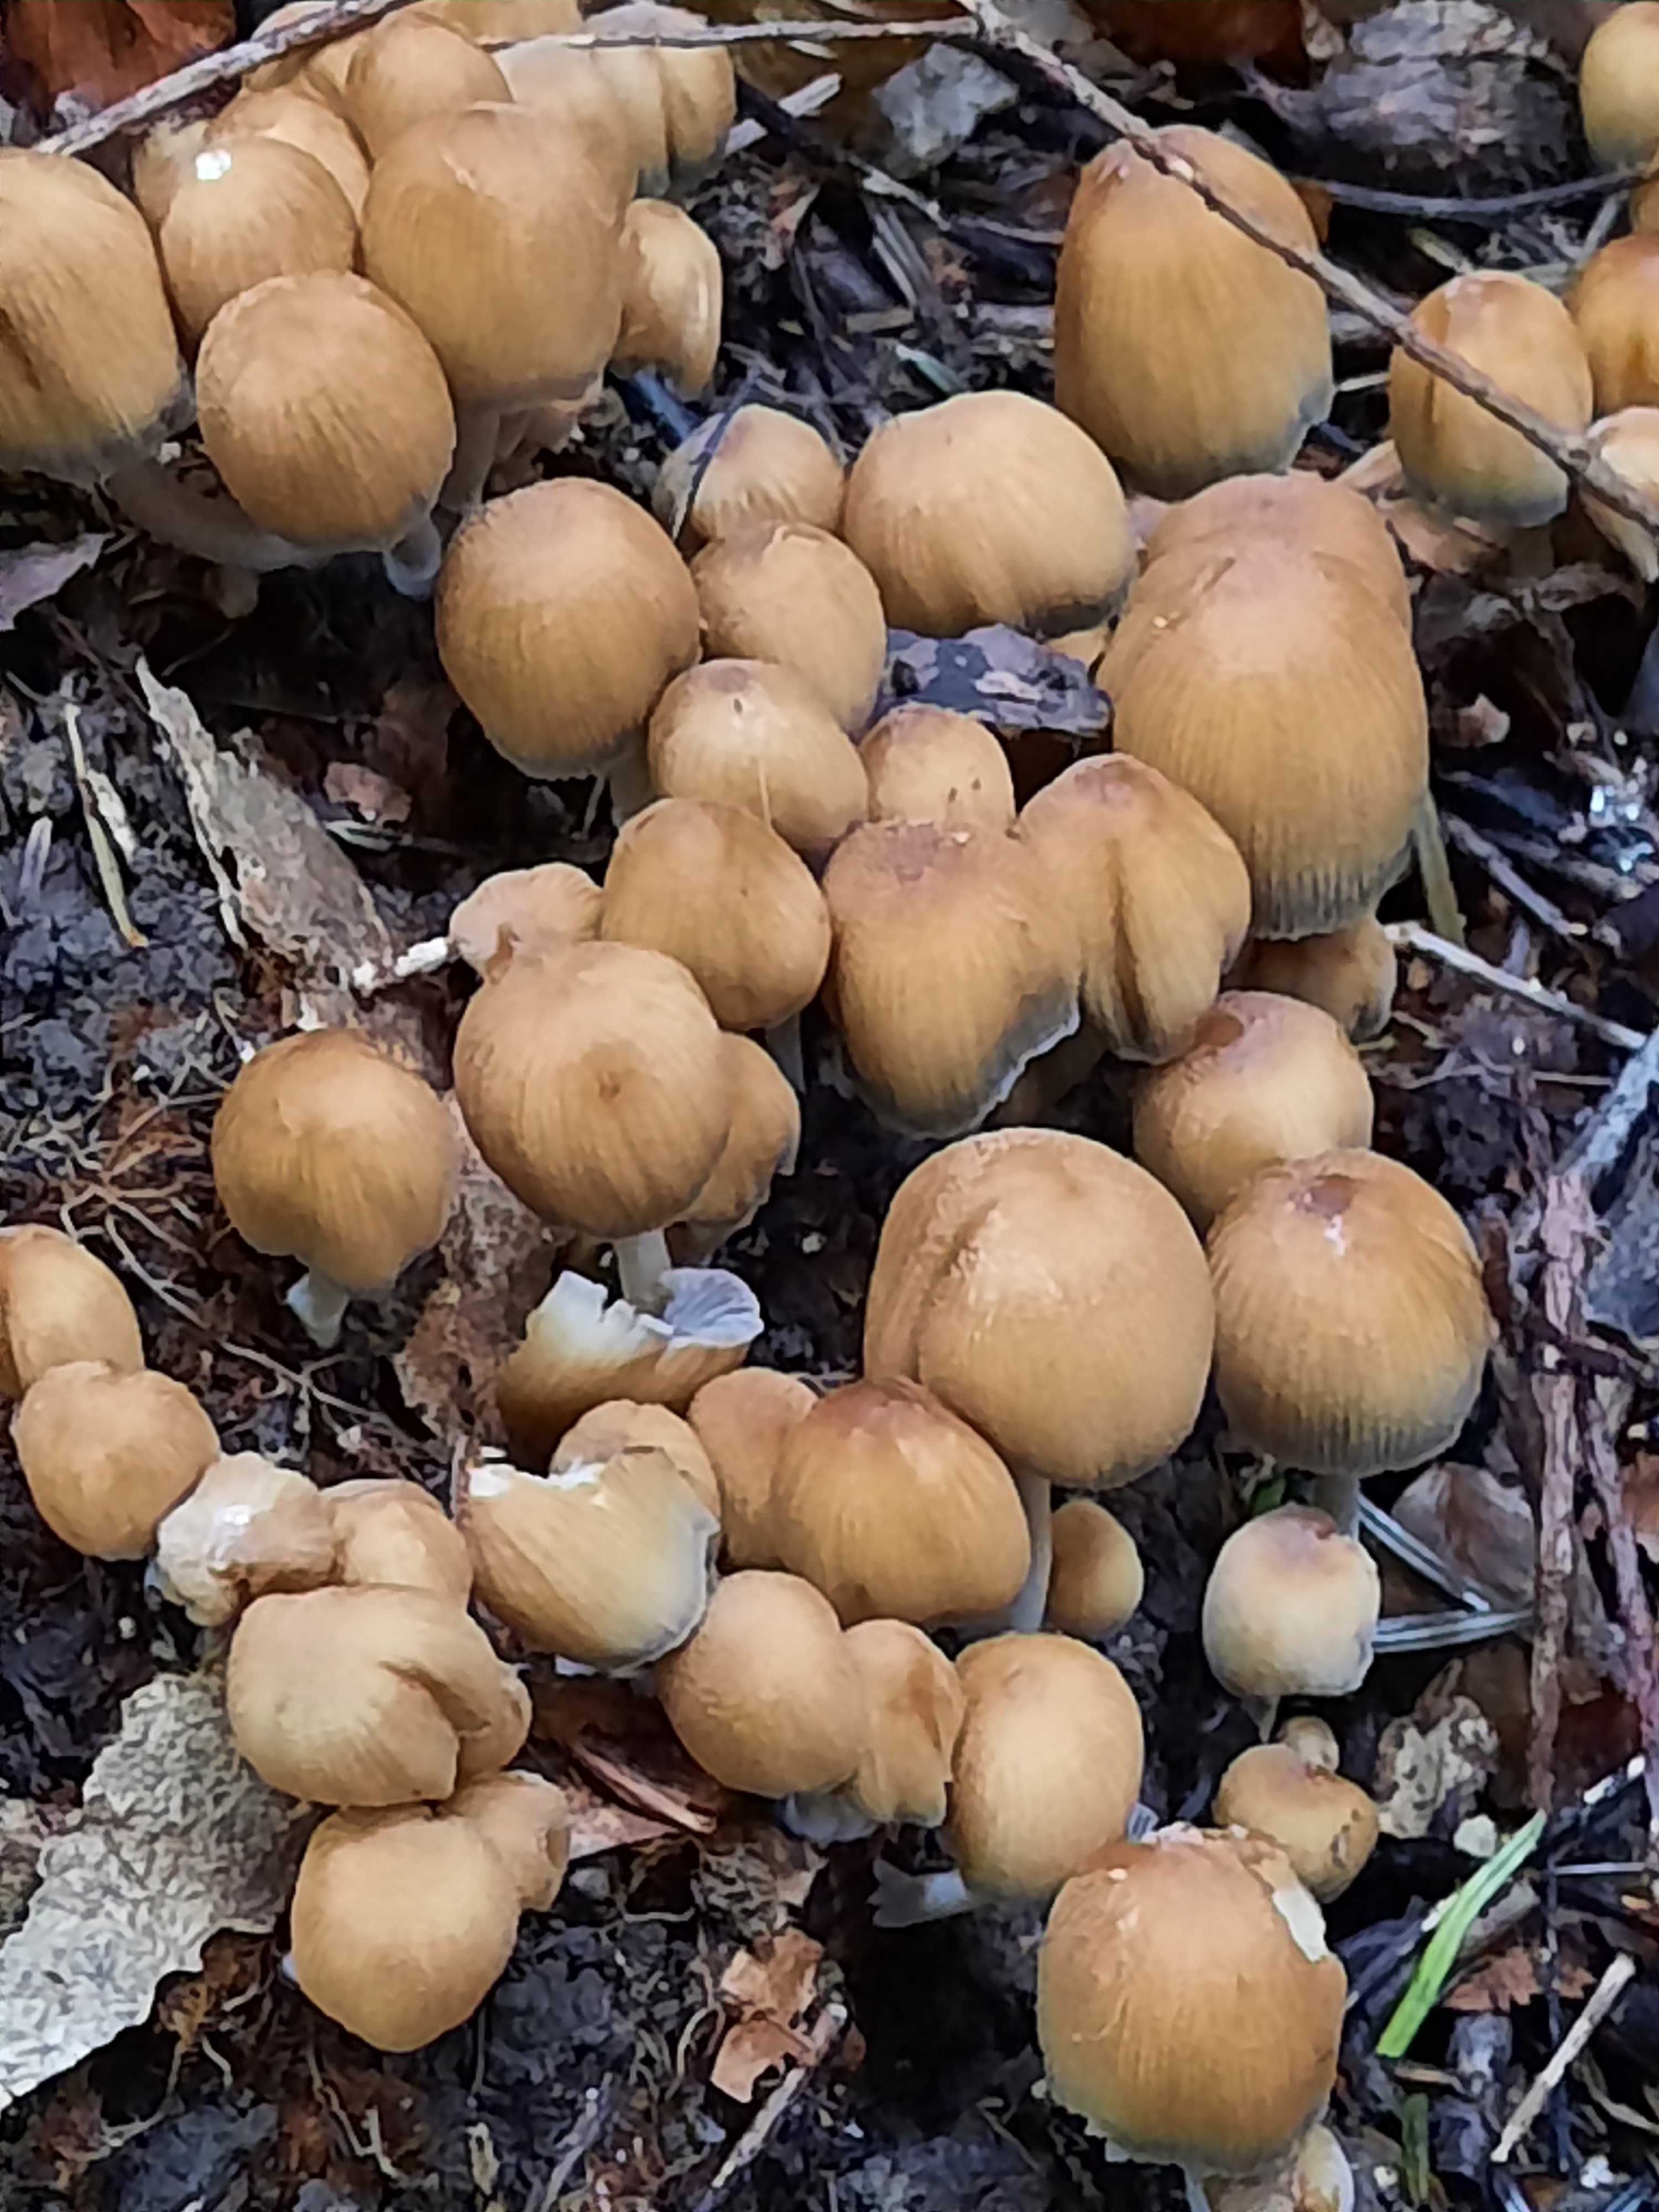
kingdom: Fungi
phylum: Basidiomycota
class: Agaricomycetes
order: Agaricales
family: Psathyrellaceae
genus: Coprinellus
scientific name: Coprinellus micaceus
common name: glimmer-blækhat
